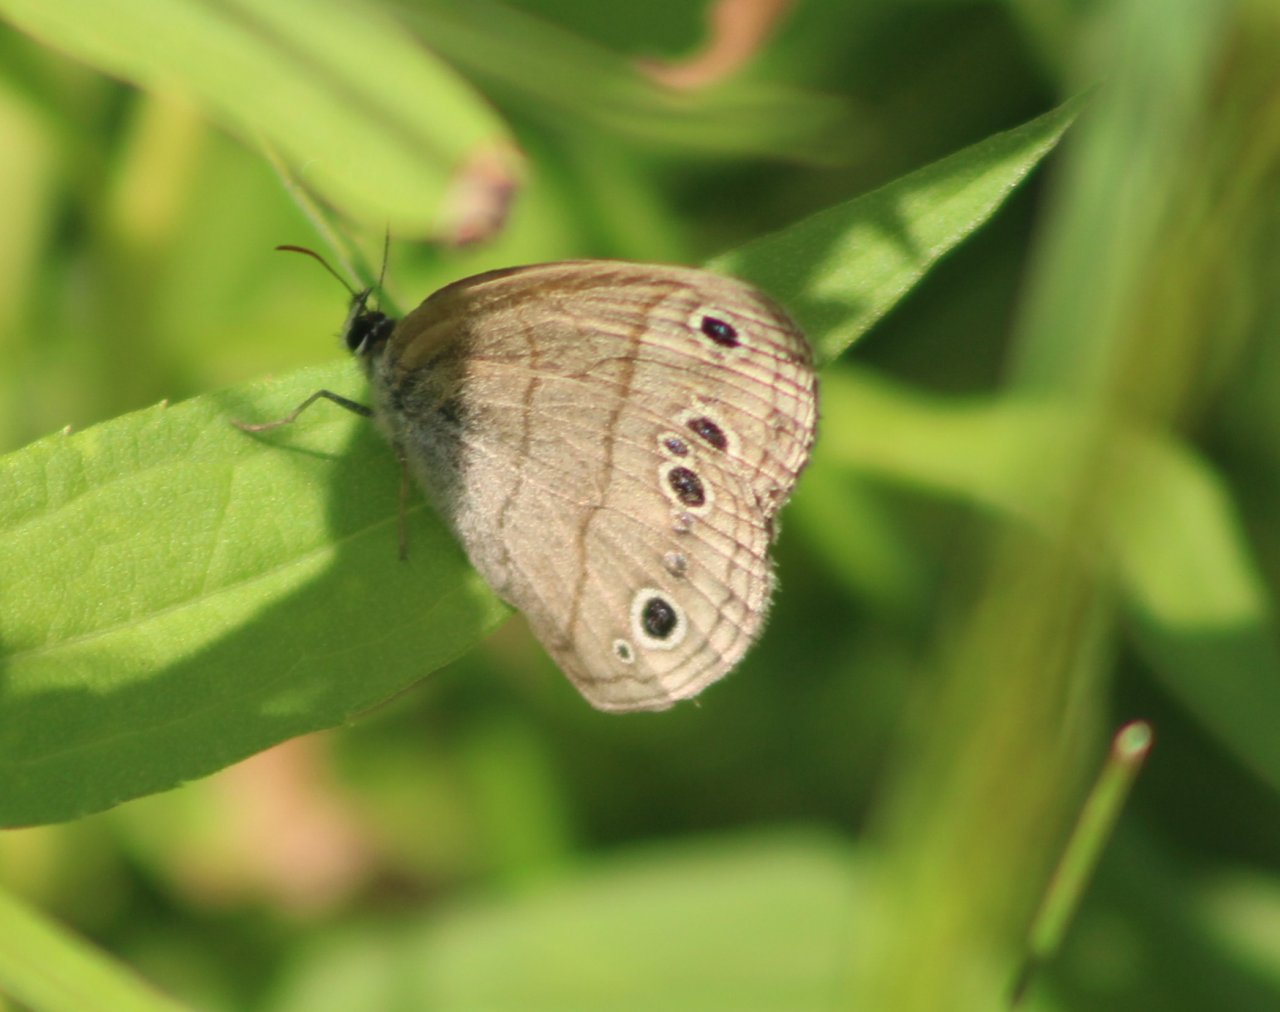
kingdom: Animalia
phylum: Arthropoda
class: Insecta
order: Lepidoptera
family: Nymphalidae
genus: Euptychia
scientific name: Euptychia cymela
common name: Little Wood Satyr
